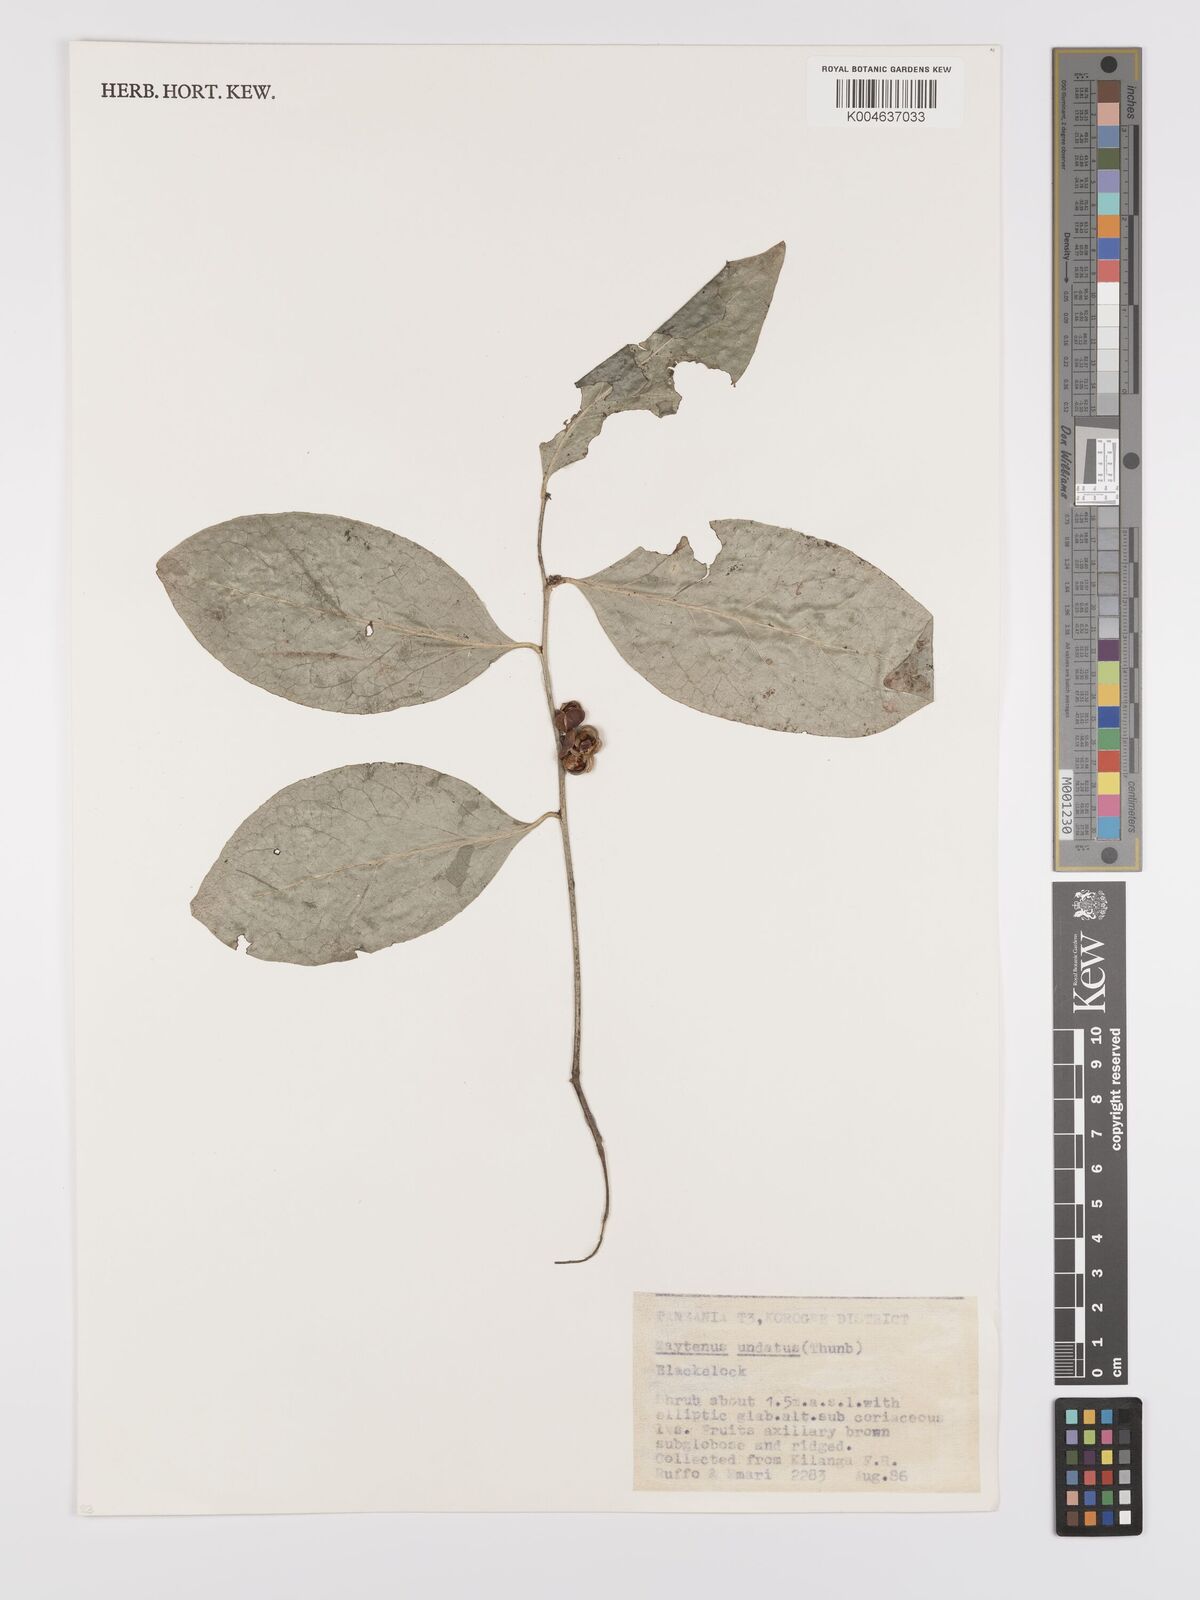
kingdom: Plantae
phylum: Tracheophyta
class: Magnoliopsida
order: Celastrales
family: Celastraceae
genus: Gymnosporia
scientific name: Gymnosporia undata
